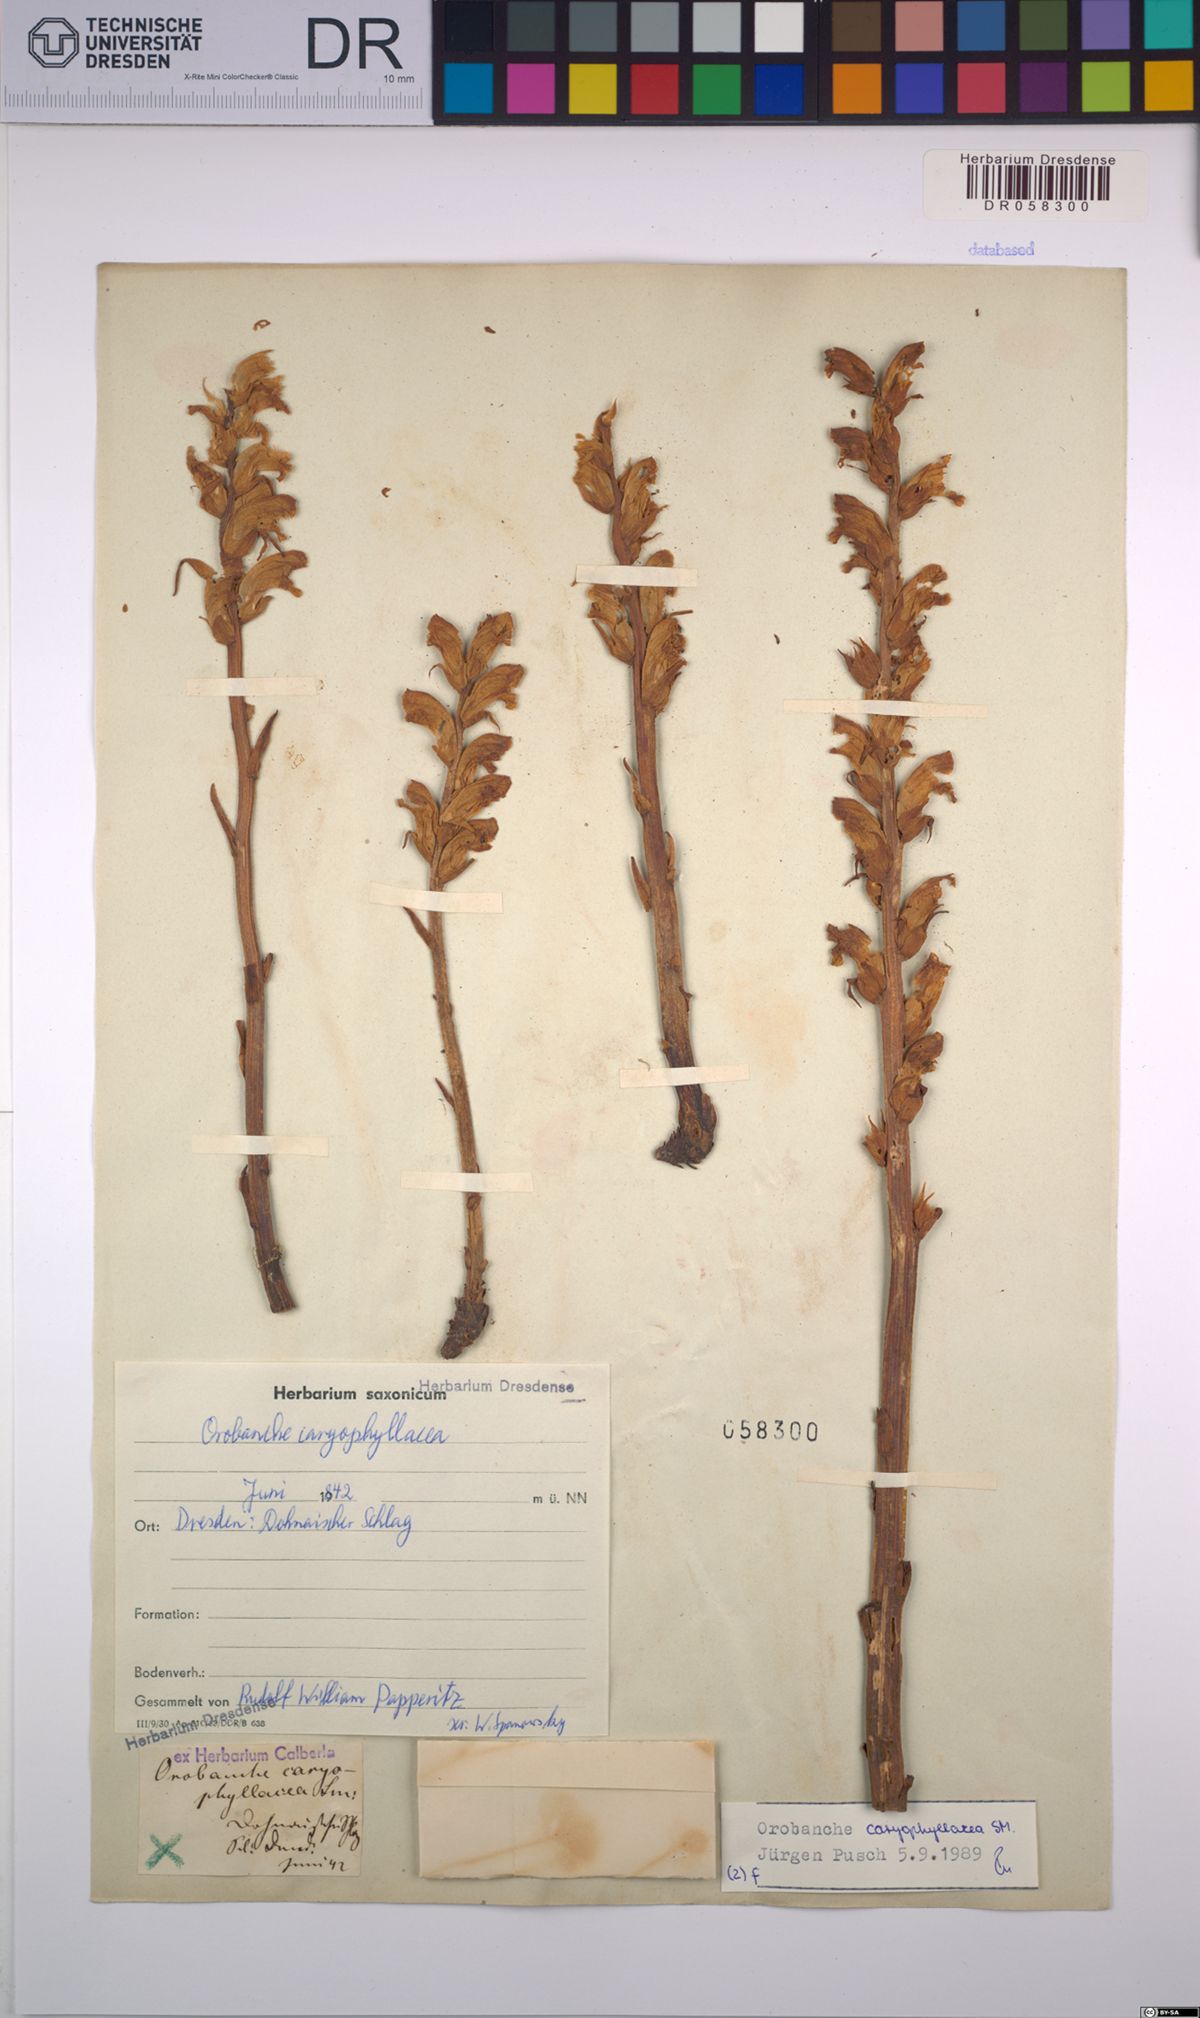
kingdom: Plantae
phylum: Tracheophyta
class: Magnoliopsida
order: Lamiales
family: Orobanchaceae
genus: Orobanche
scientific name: Orobanche caryophyllacea
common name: Bedstraw broomrape
